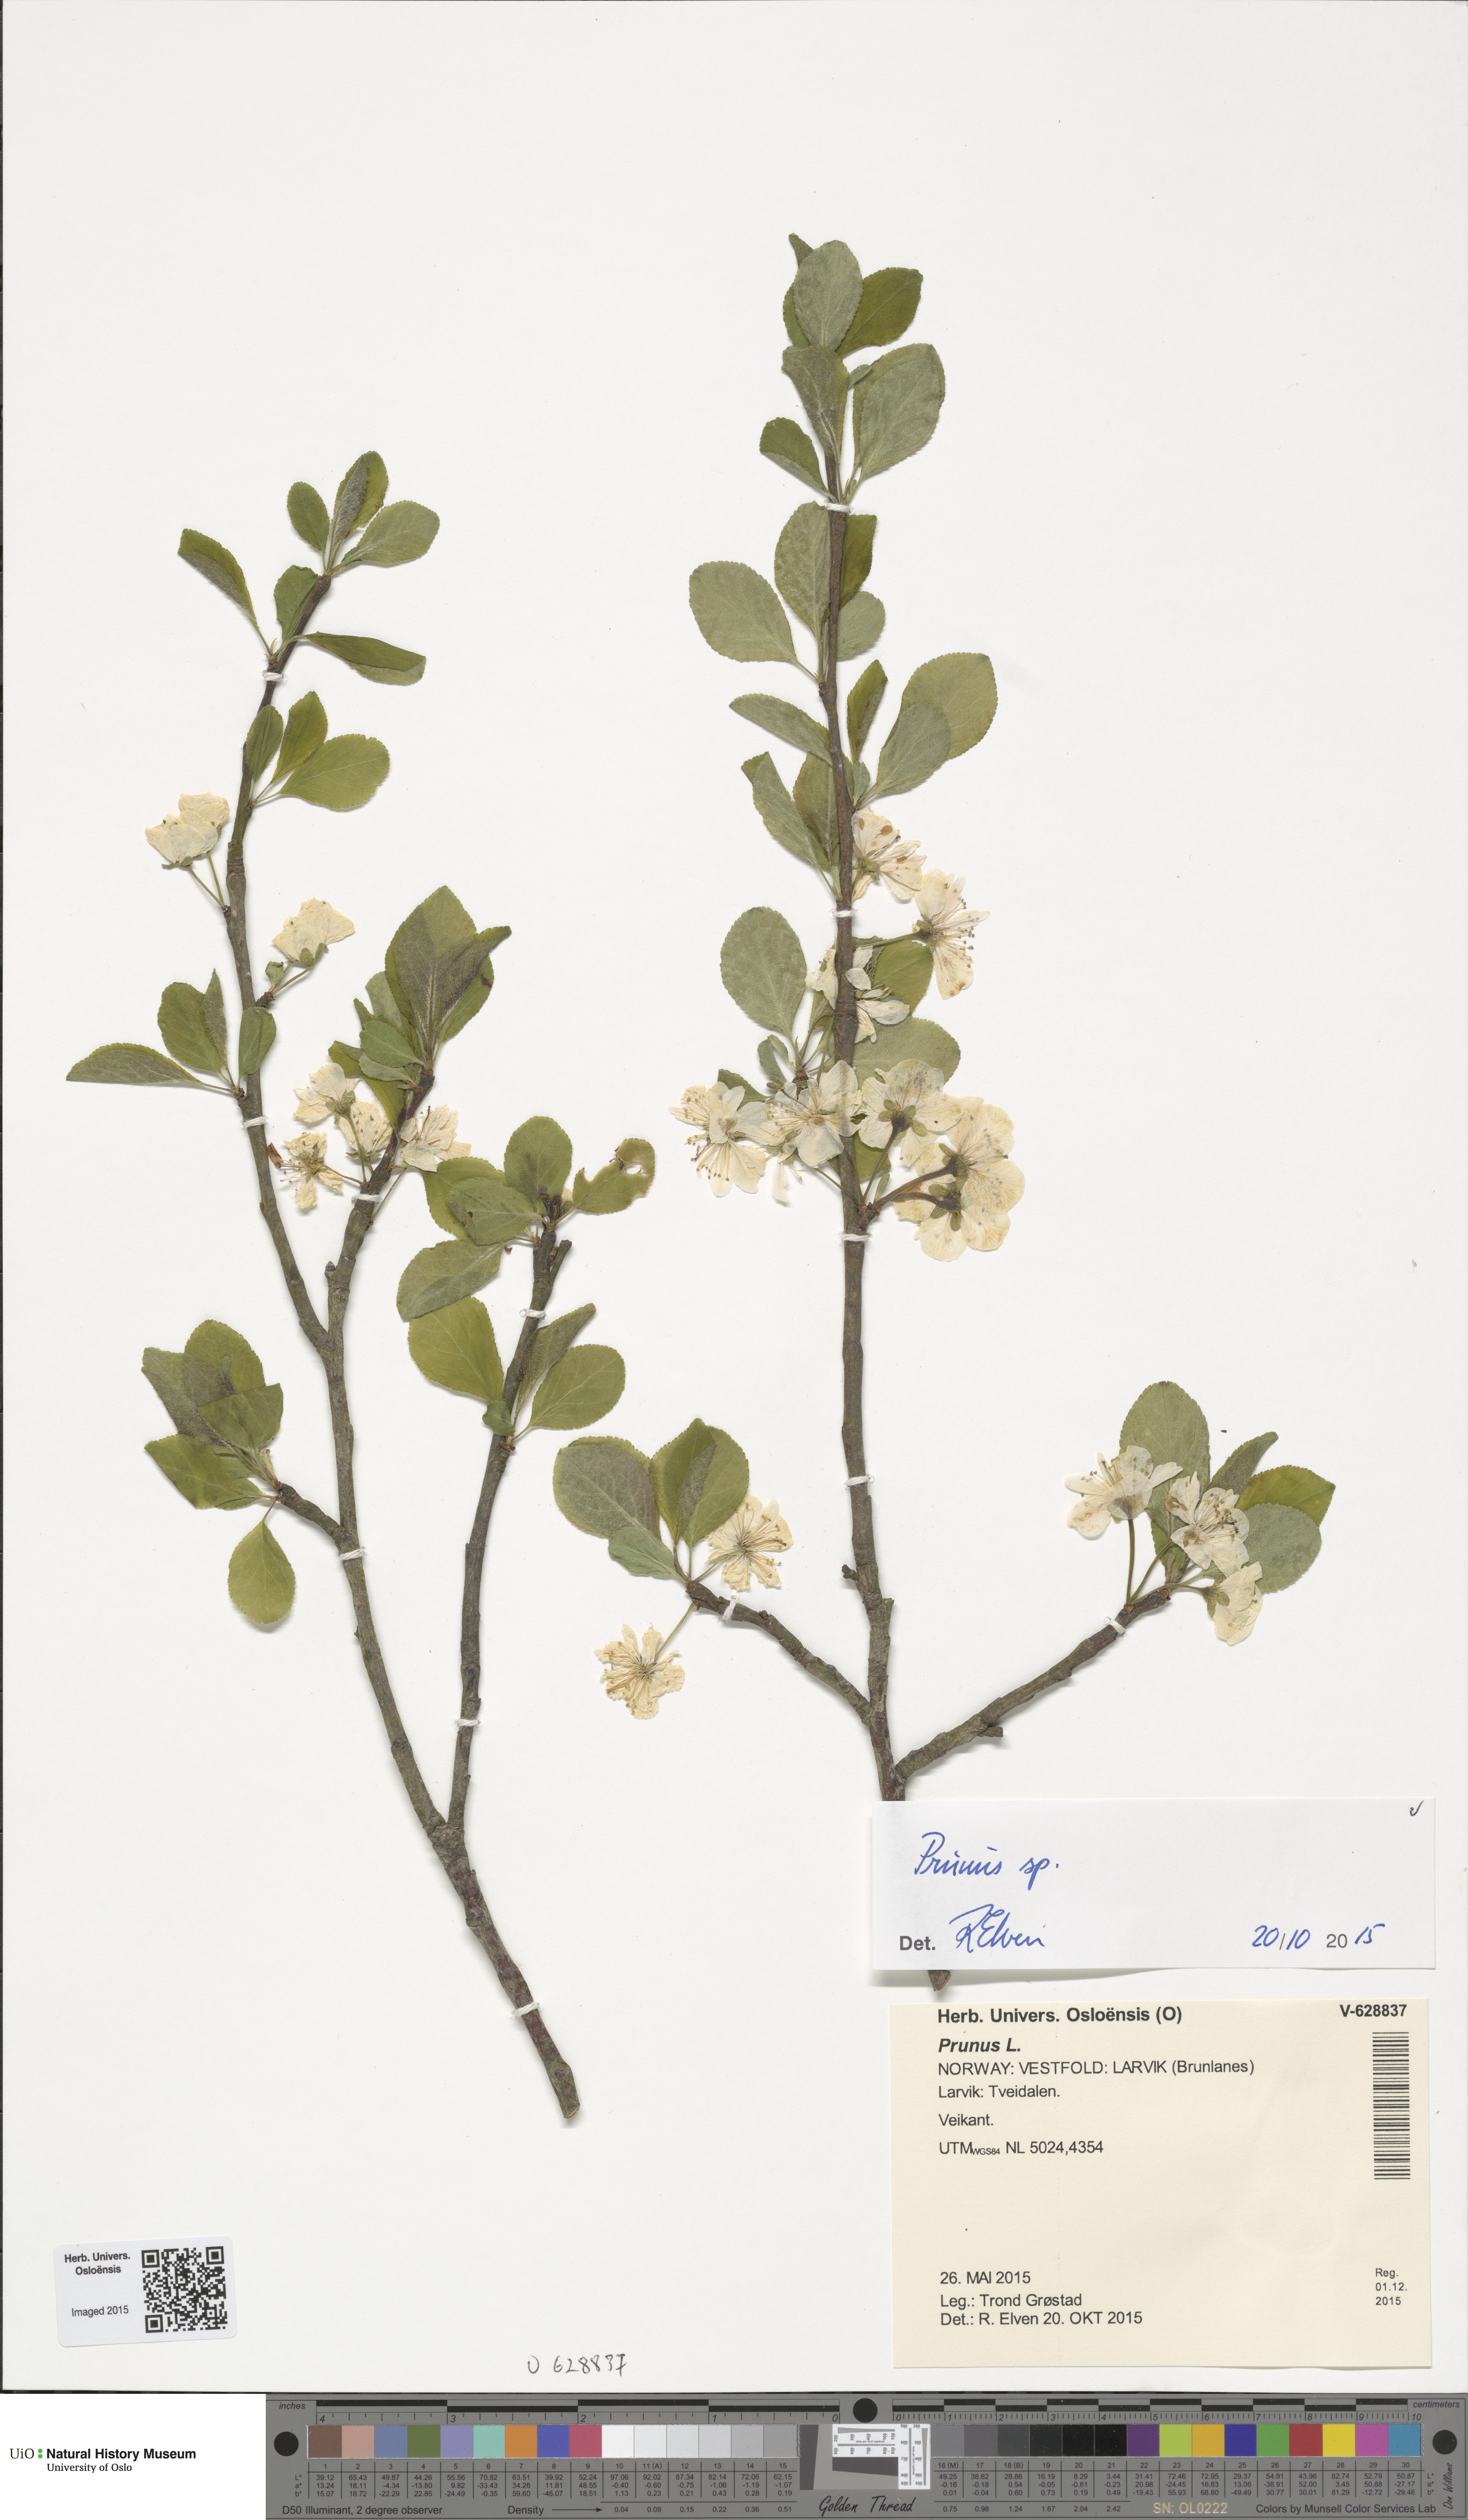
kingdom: Plantae
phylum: Tracheophyta
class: Magnoliopsida
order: Rosales
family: Rosaceae
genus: Prunus
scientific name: Prunus
